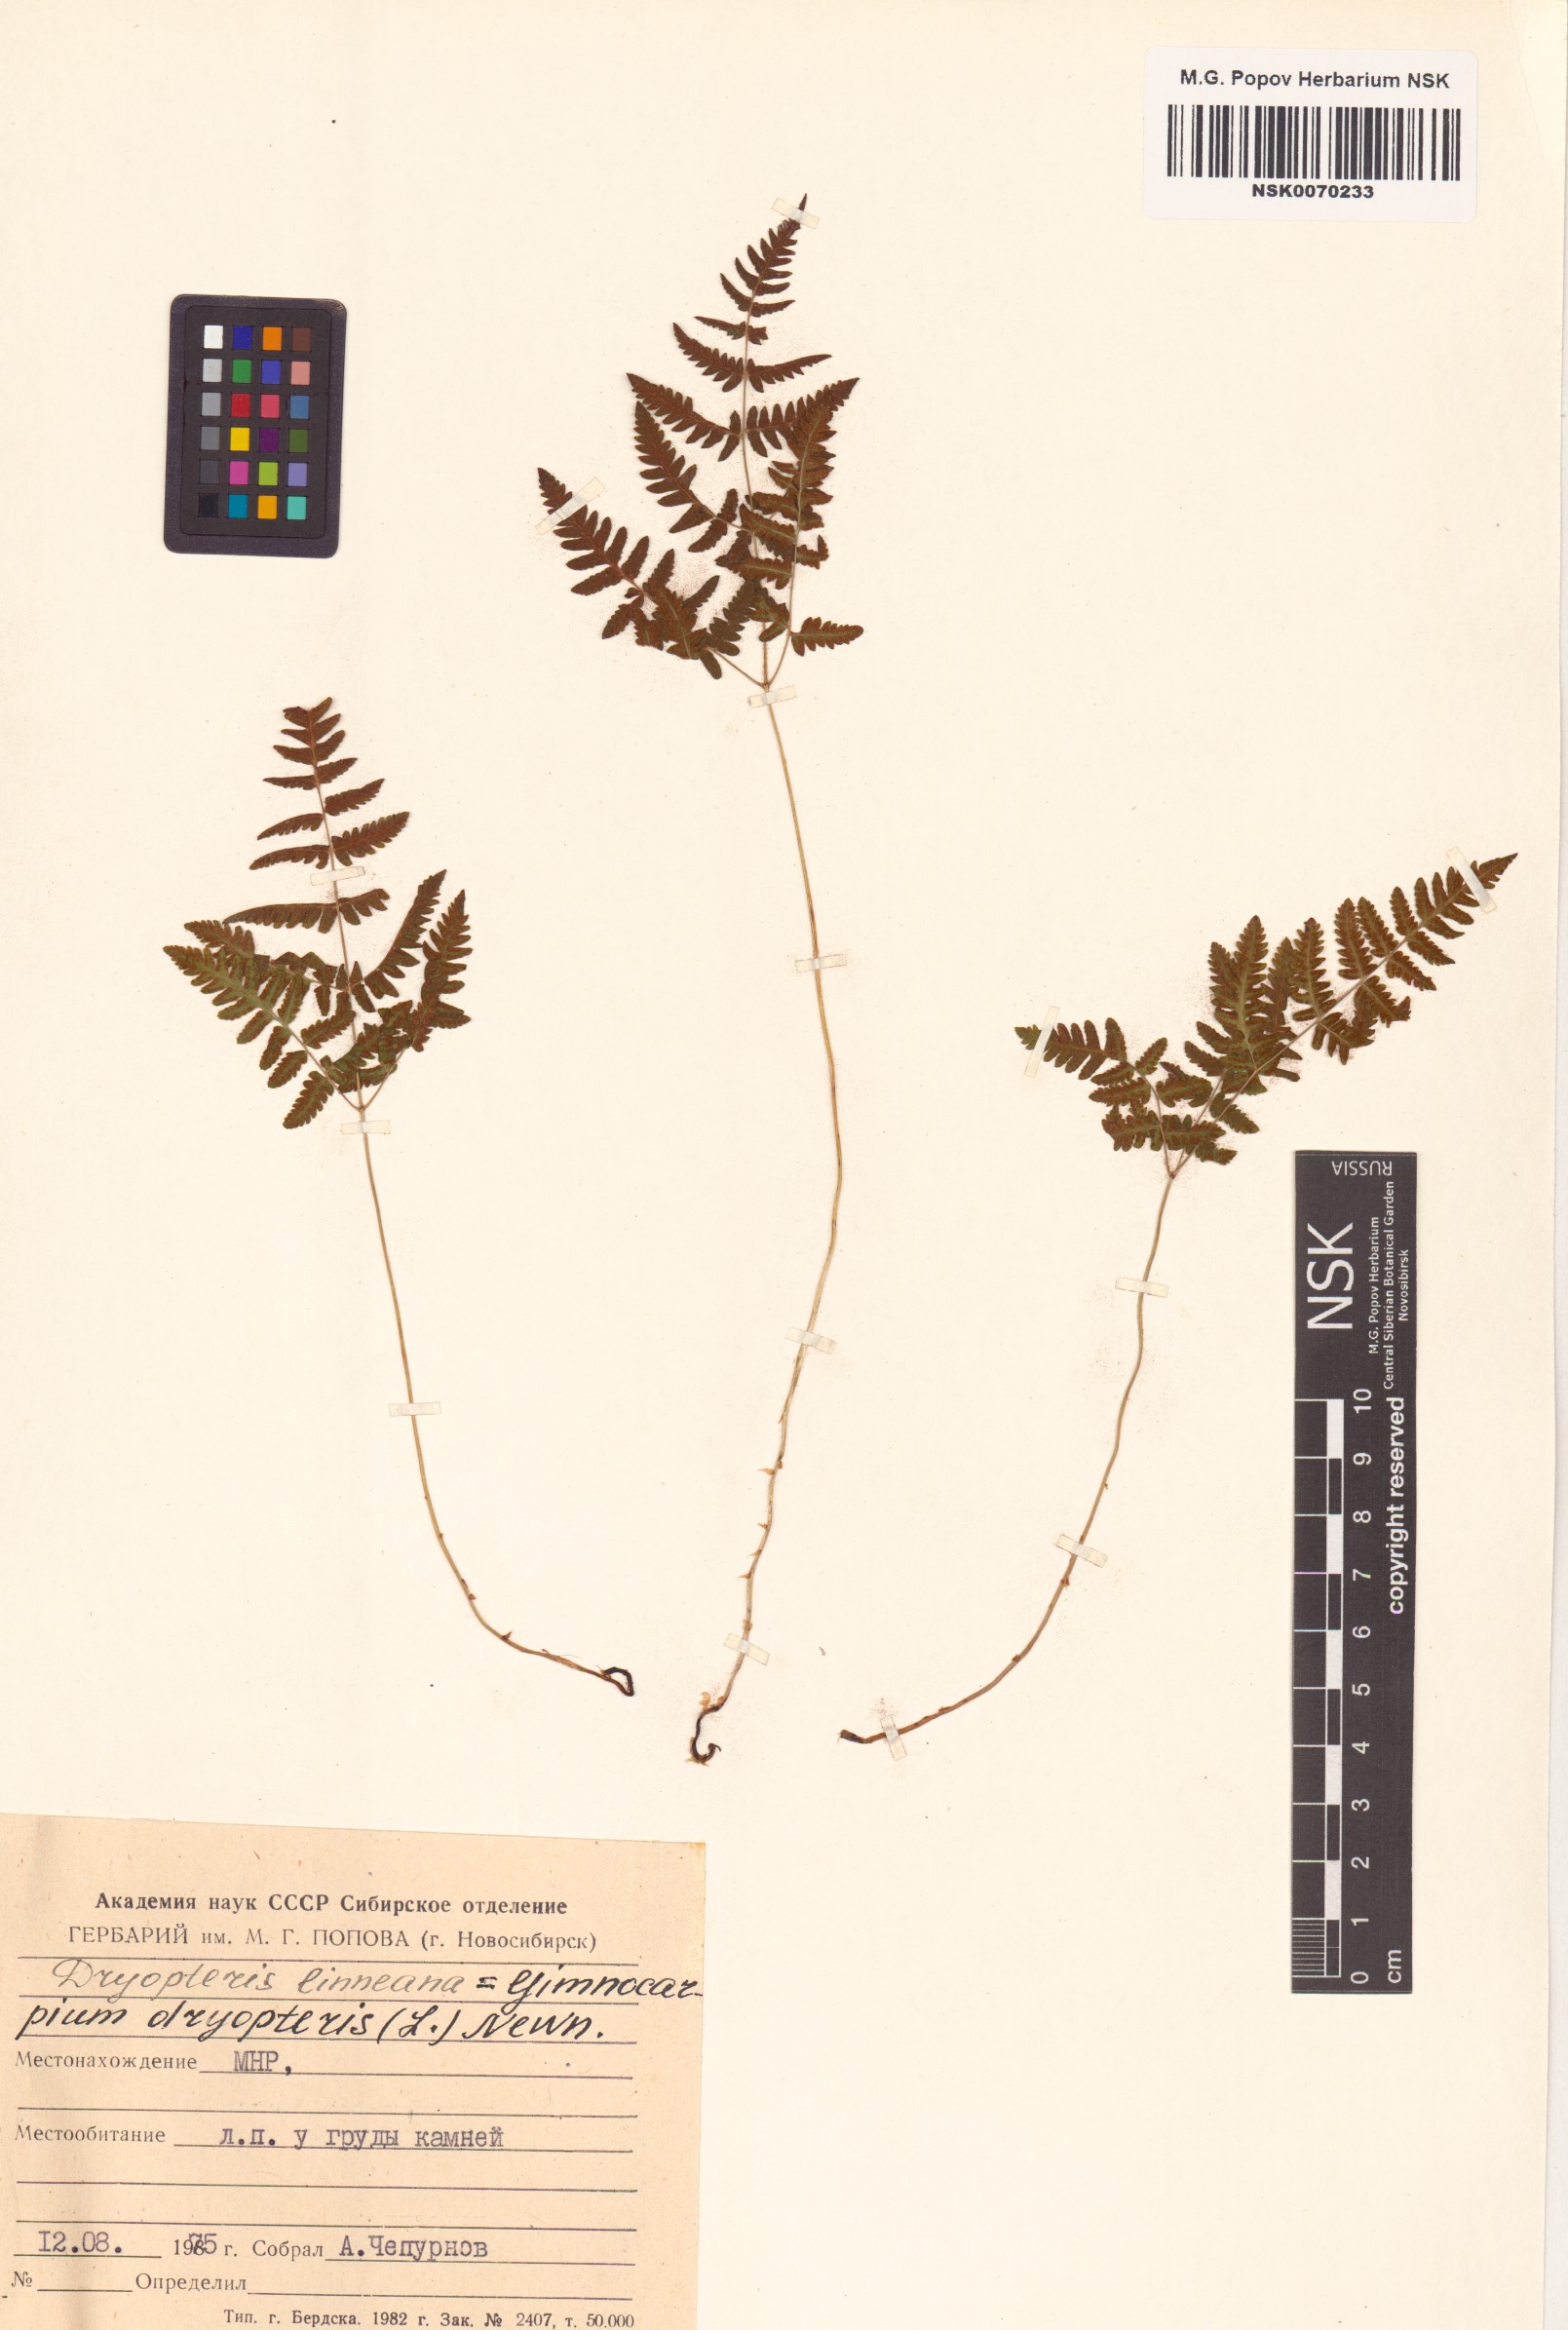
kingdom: Plantae
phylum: Tracheophyta
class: Polypodiopsida
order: Polypodiales
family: Cystopteridaceae
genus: Gymnocarpium
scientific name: Gymnocarpium dryopteris
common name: Oak fern
